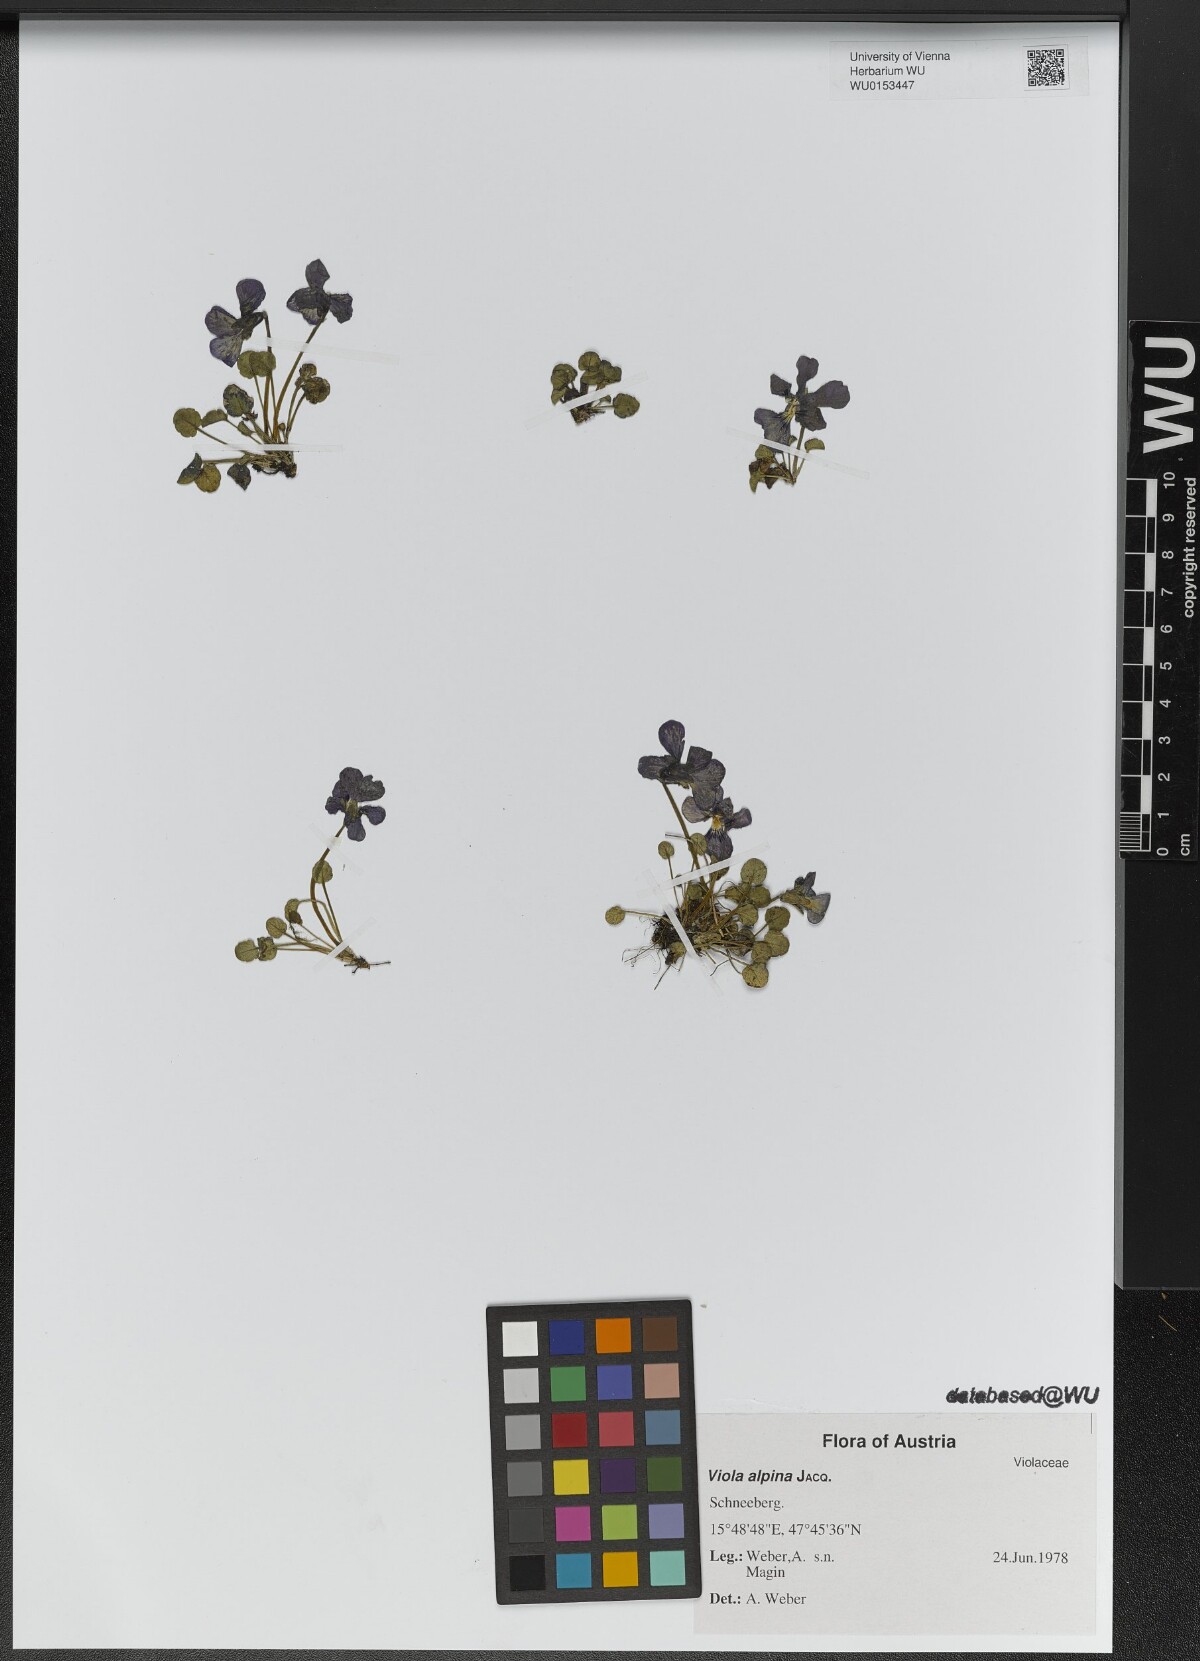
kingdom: Plantae
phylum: Tracheophyta
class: Magnoliopsida
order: Malpighiales
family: Violaceae
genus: Viola
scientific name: Viola alpina
